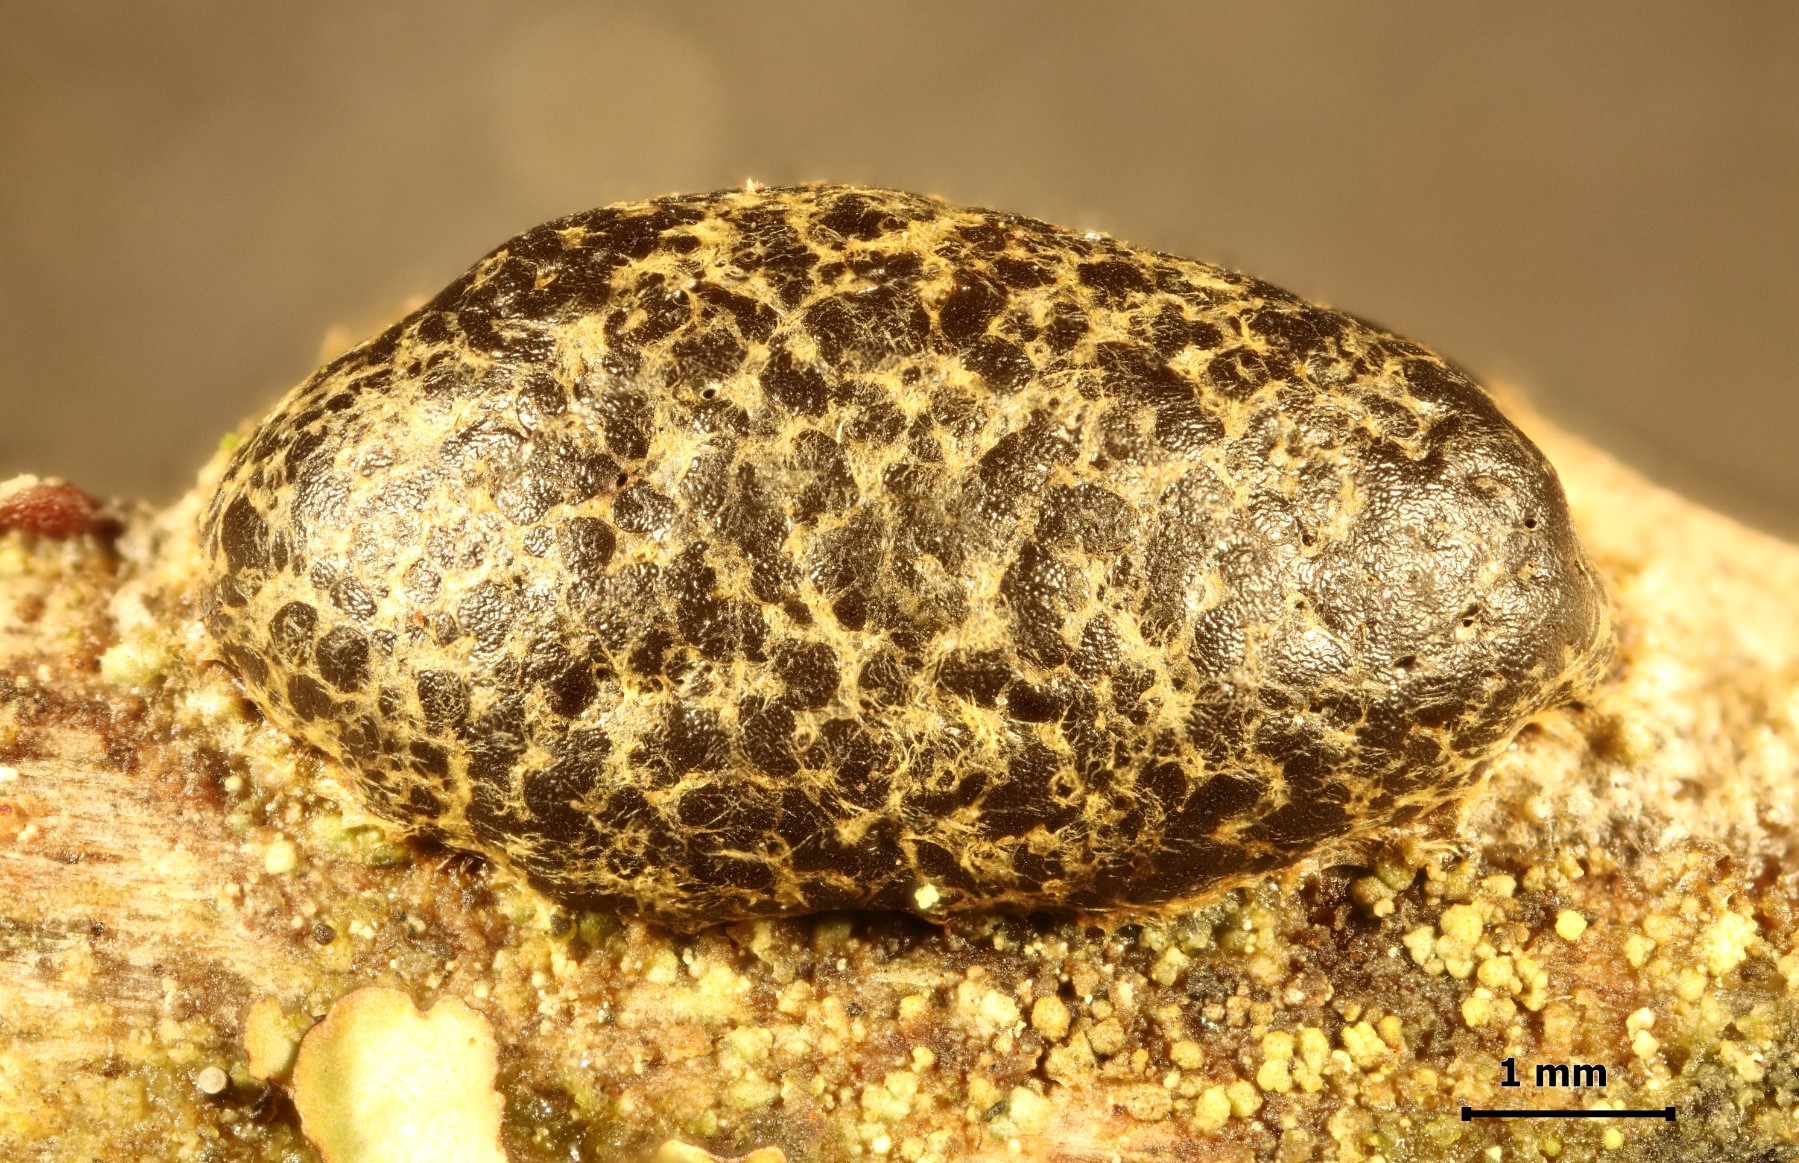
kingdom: Protozoa
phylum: Mycetozoa
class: Myxomycetes
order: Cribrariales
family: Tubiferaceae
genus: Licaethalium
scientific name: Licaethalium olivaceum
